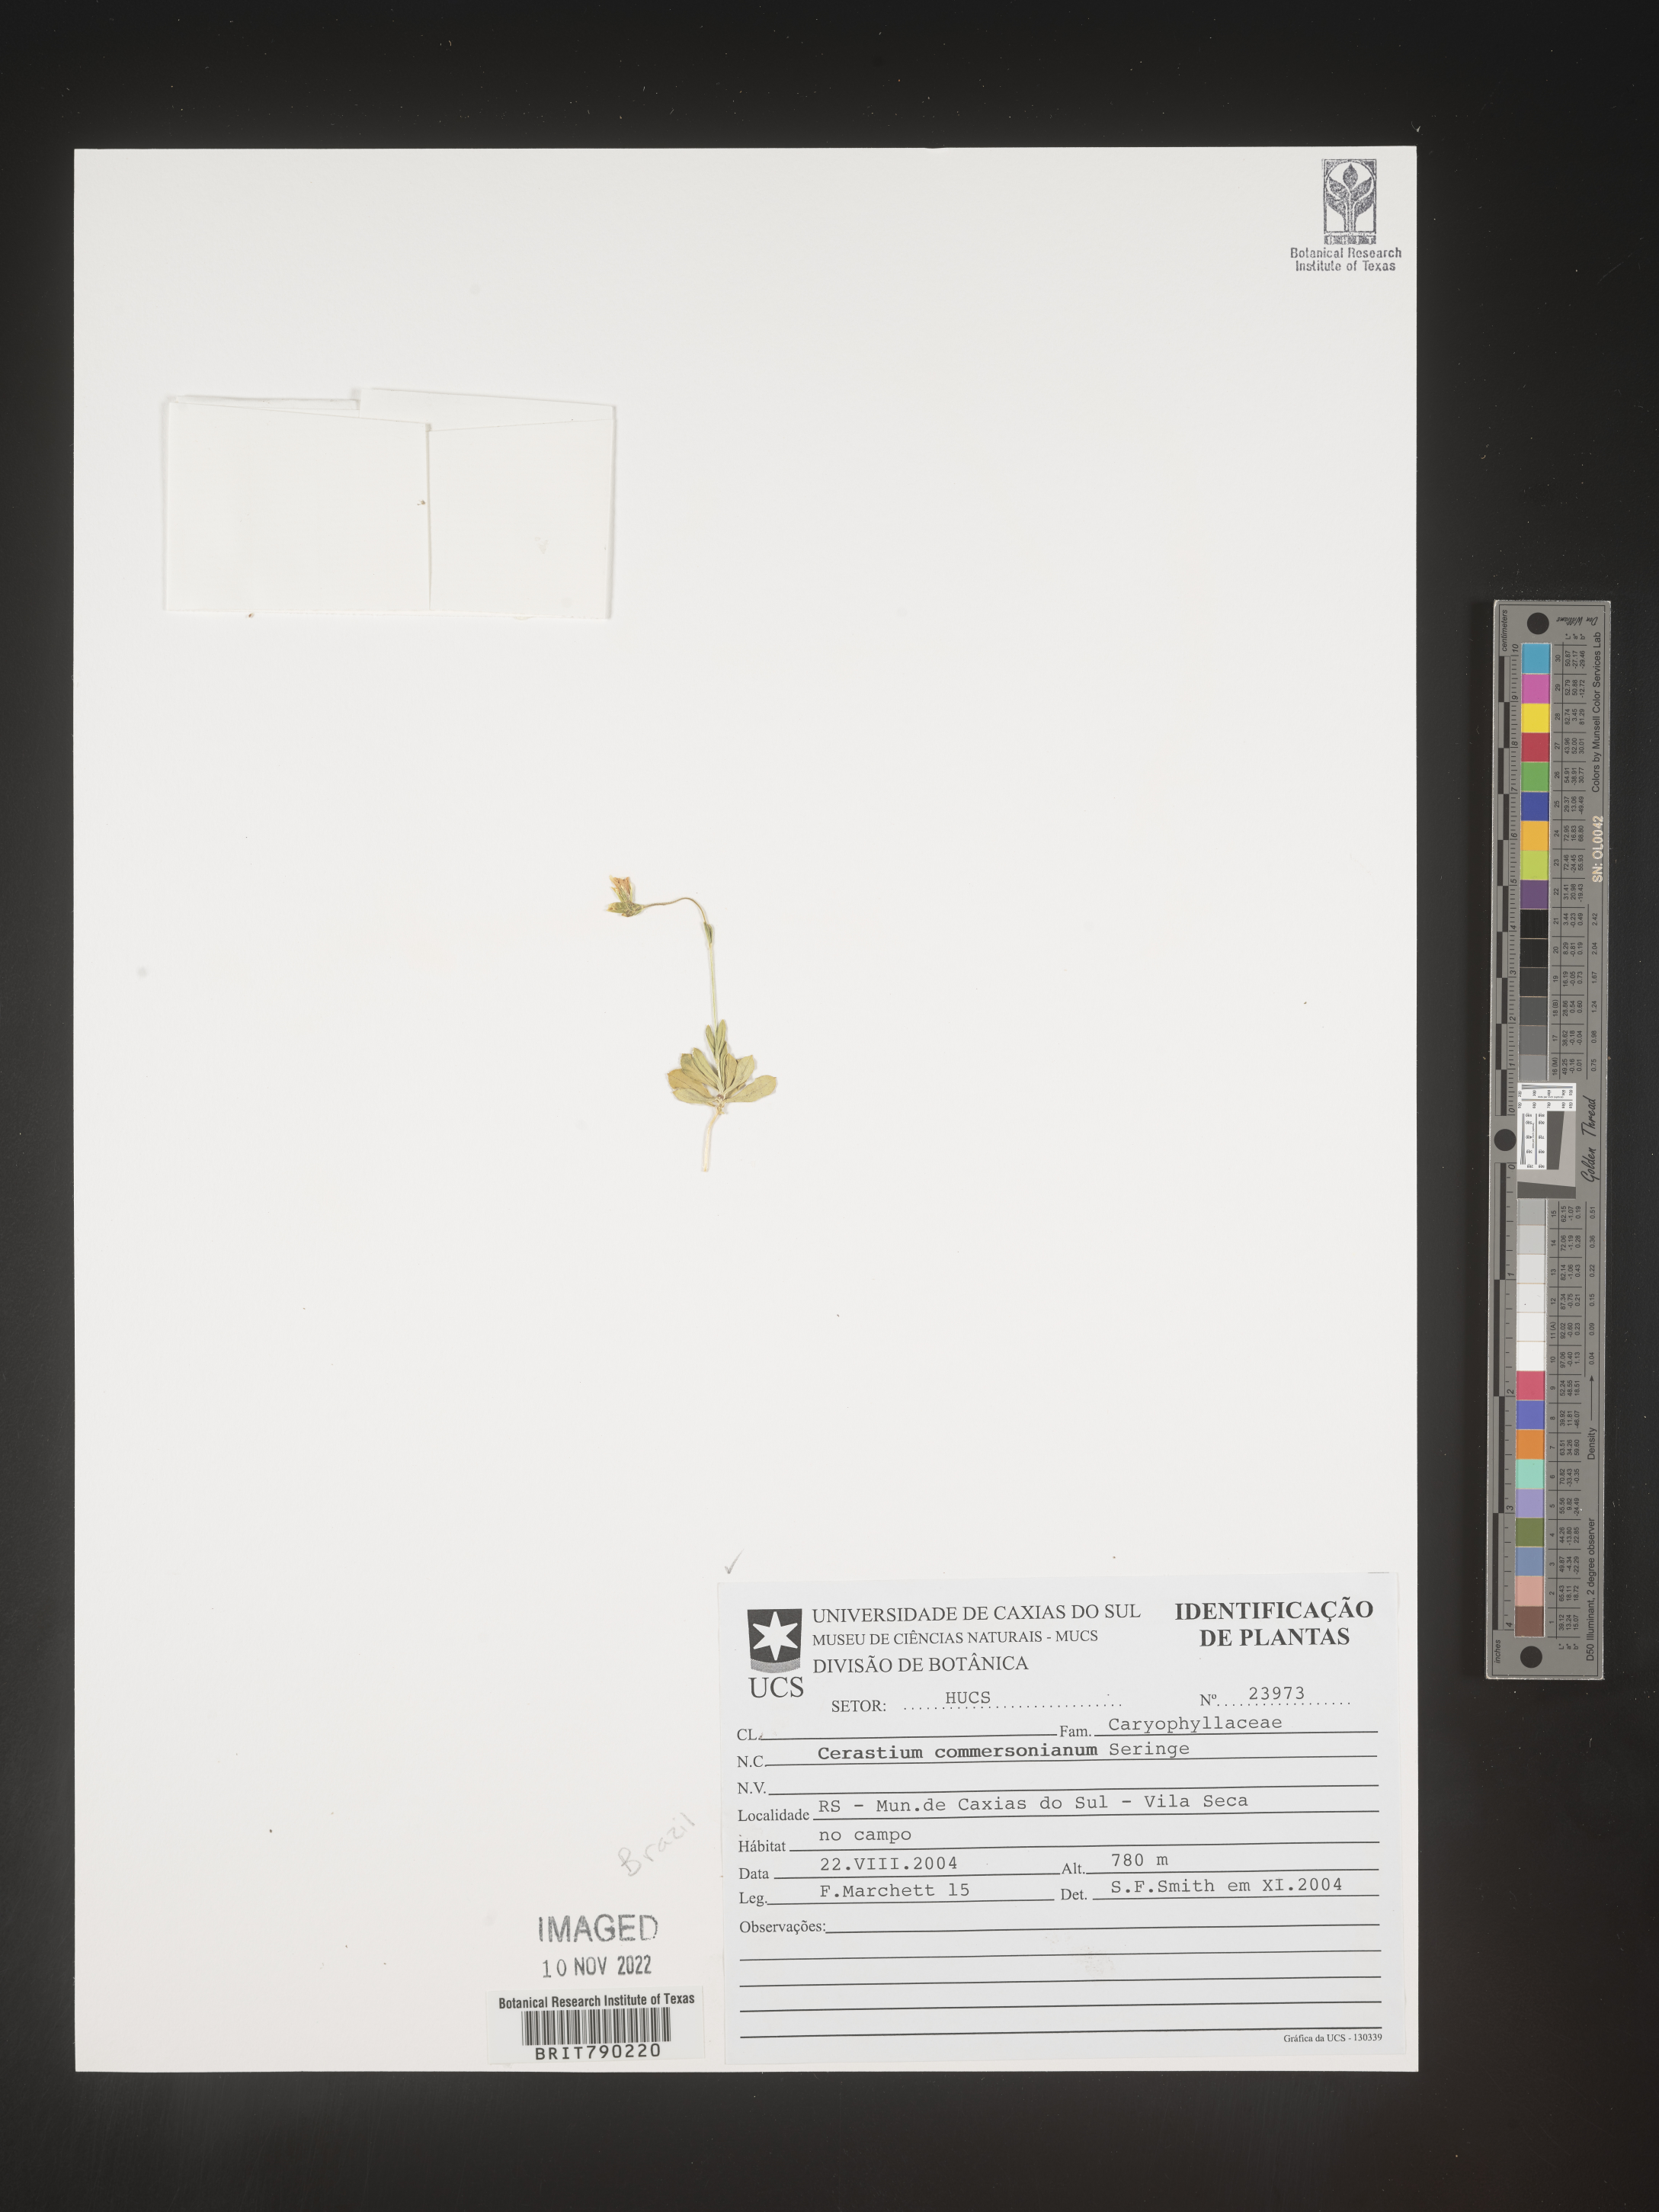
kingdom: Plantae
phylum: Tracheophyta
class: Magnoliopsida
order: Caryophyllales
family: Caryophyllaceae
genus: Cerastium
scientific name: Cerastium
